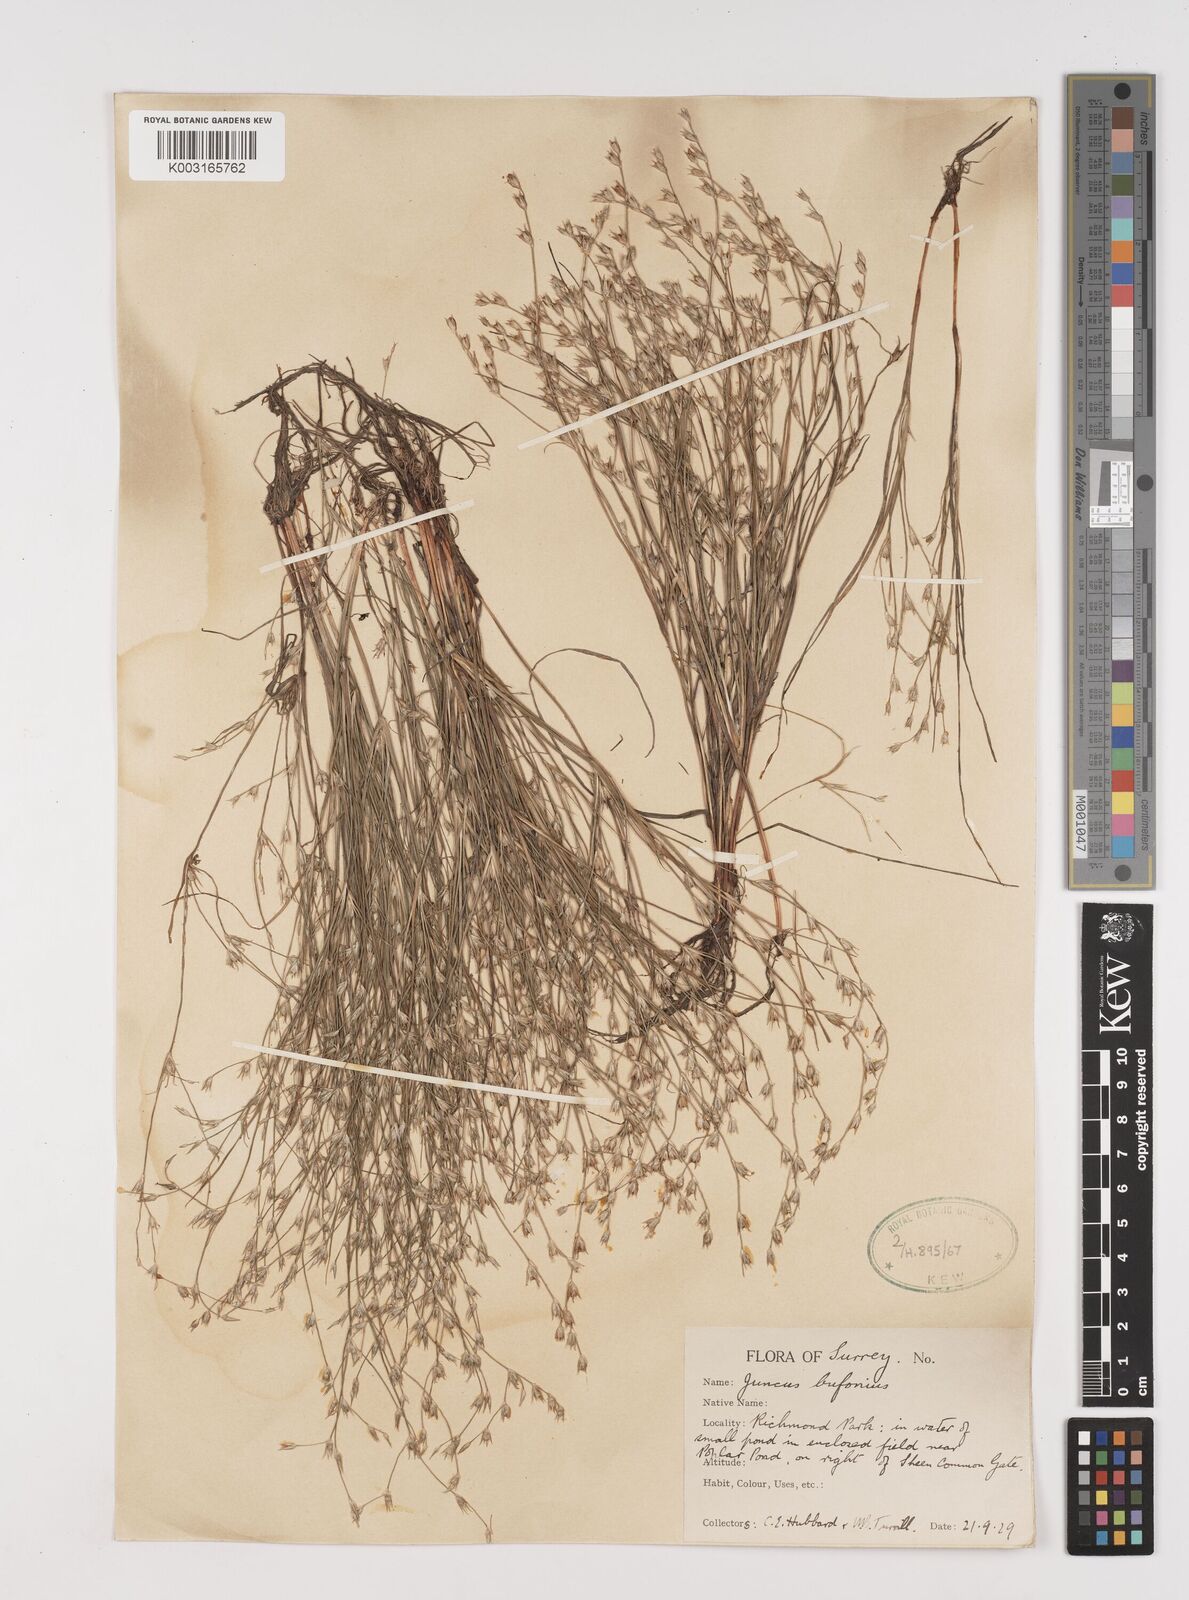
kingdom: Plantae
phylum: Tracheophyta
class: Liliopsida
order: Poales
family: Juncaceae
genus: Juncus
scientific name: Juncus bufonius
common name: Toad rush
